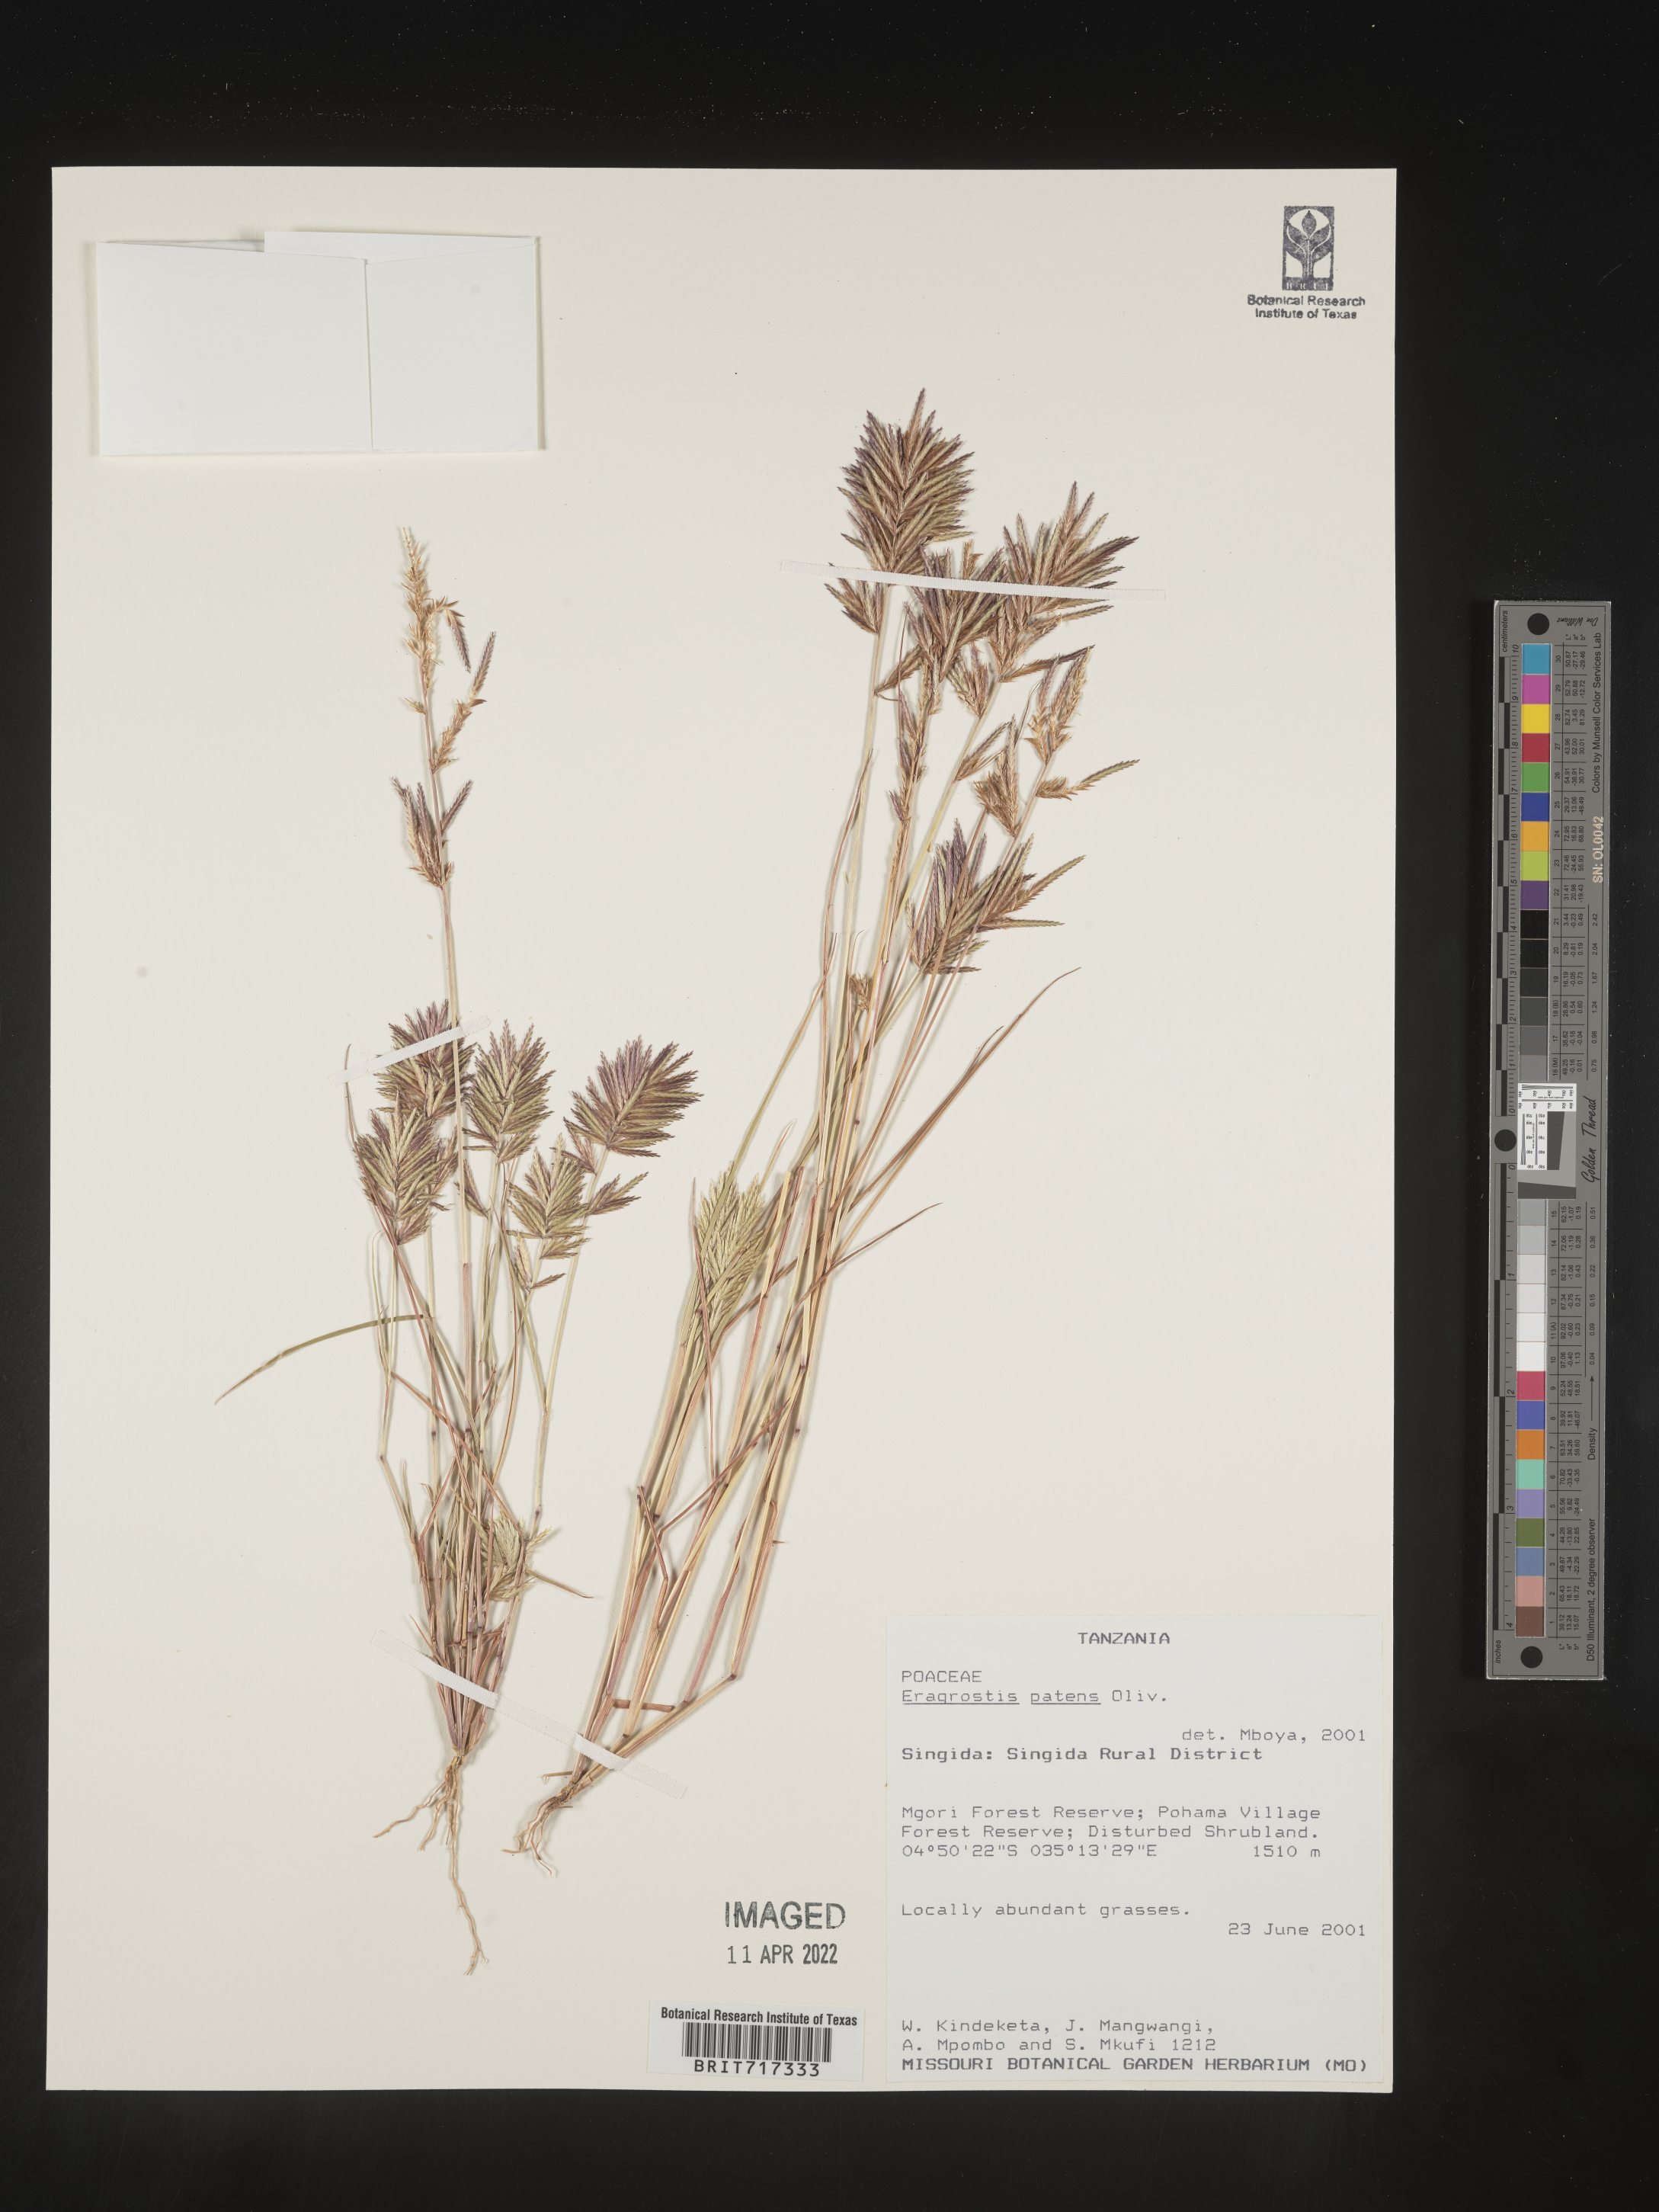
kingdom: Plantae
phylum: Tracheophyta
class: Liliopsida
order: Poales
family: Poaceae
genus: Eragrostis
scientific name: Eragrostis
